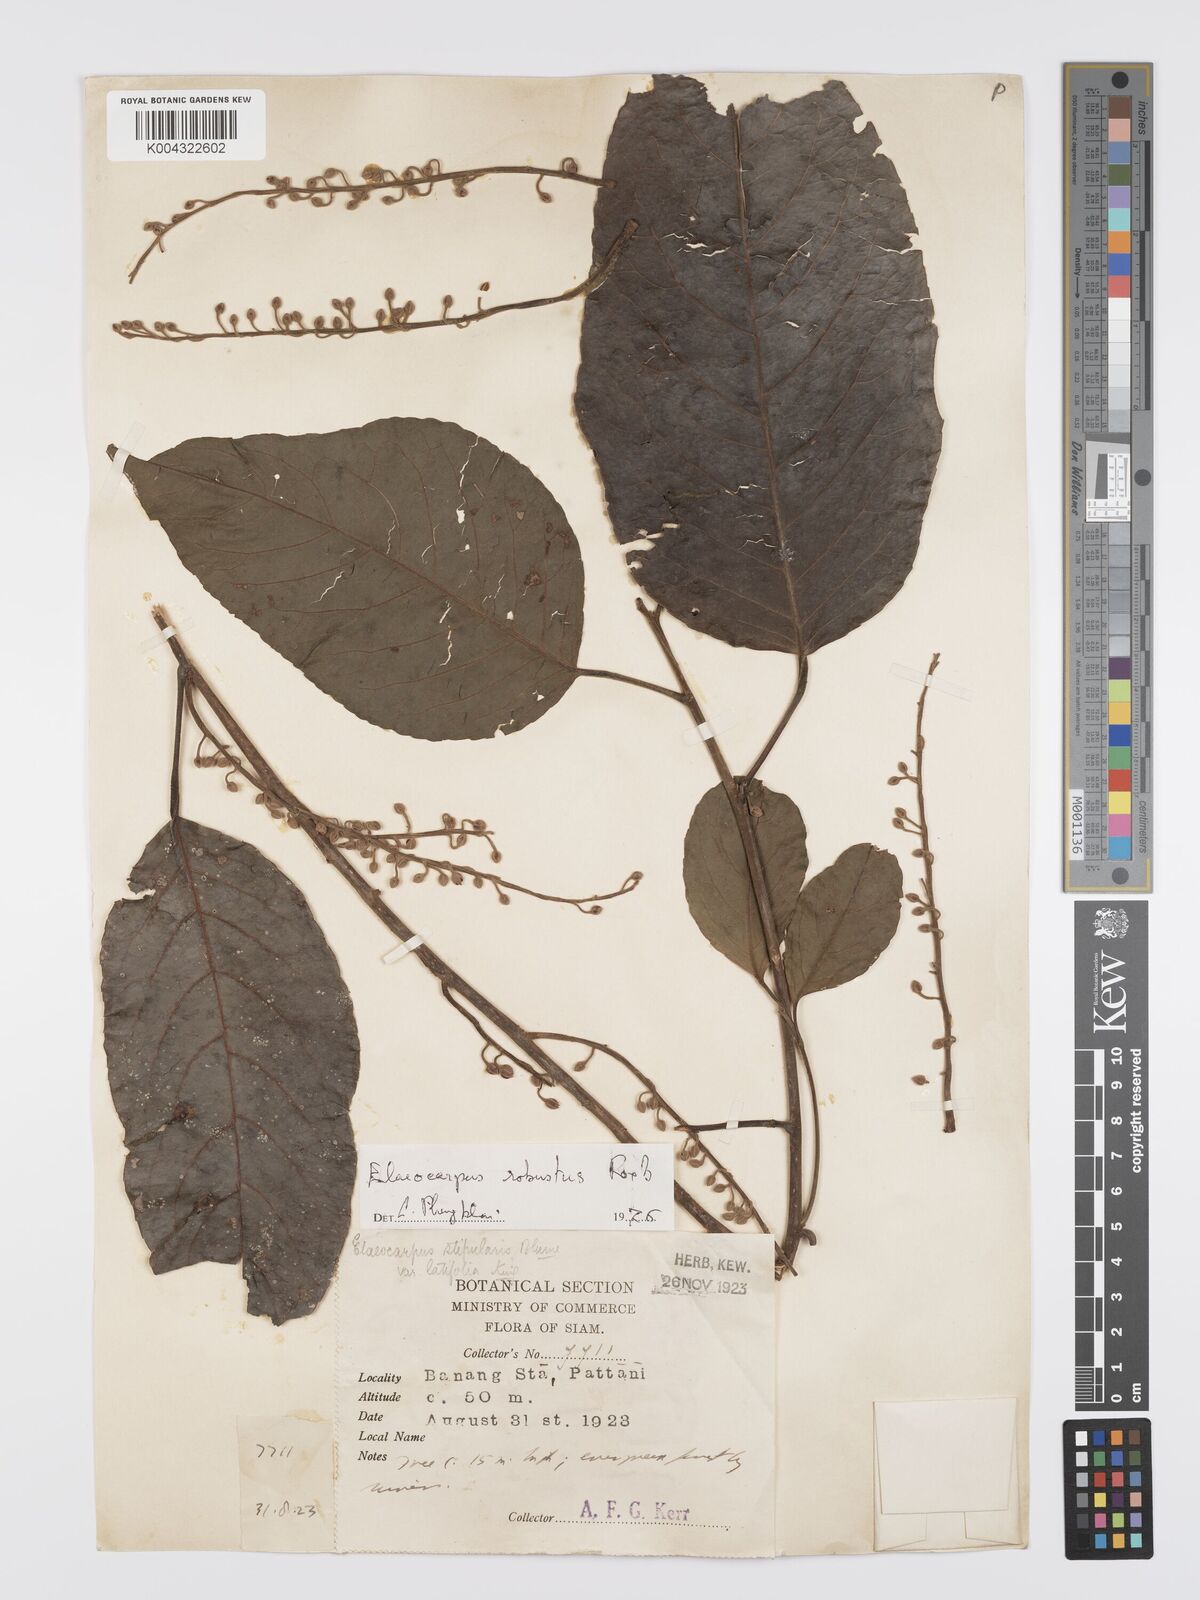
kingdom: Plantae
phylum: Tracheophyta
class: Magnoliopsida
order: Oxalidales
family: Elaeocarpaceae
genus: Elaeocarpus
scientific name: Elaeocarpus robustus
